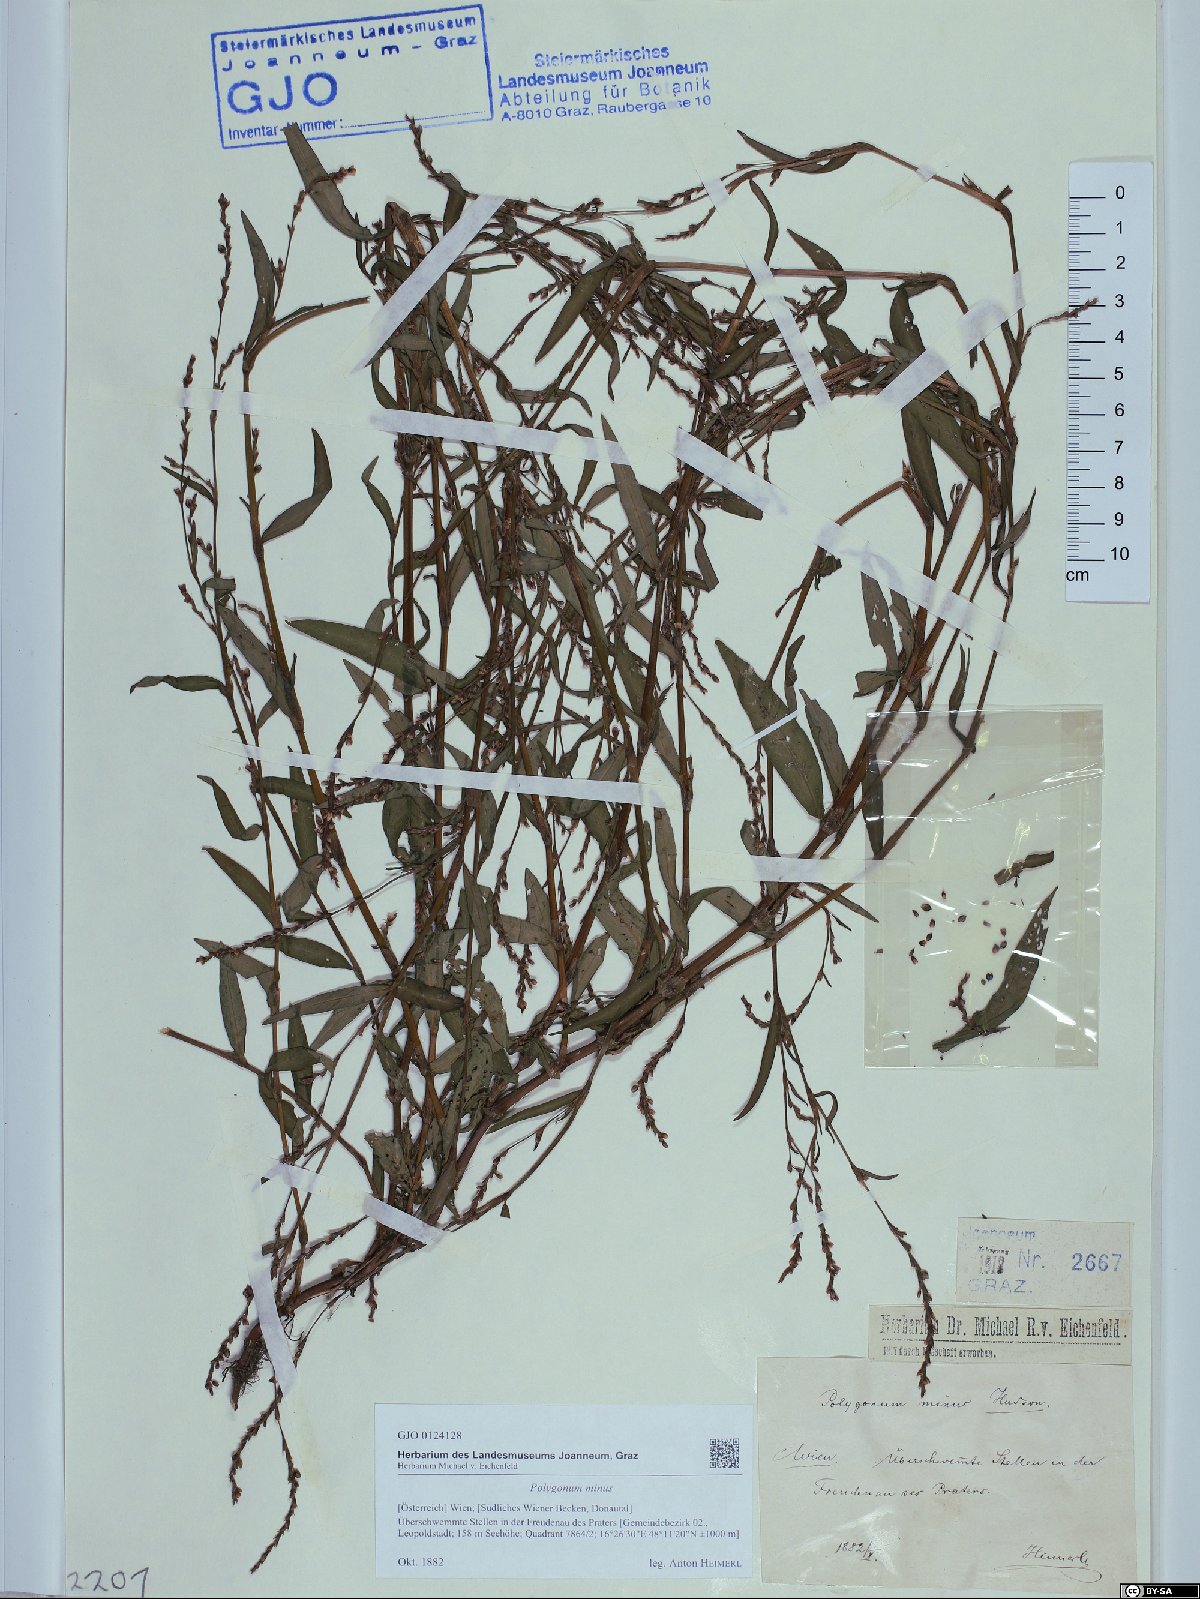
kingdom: Plantae
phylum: Tracheophyta
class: Magnoliopsida
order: Caryophyllales
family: Polygonaceae
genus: Persicaria
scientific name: Persicaria minor
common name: Small water-pepper
